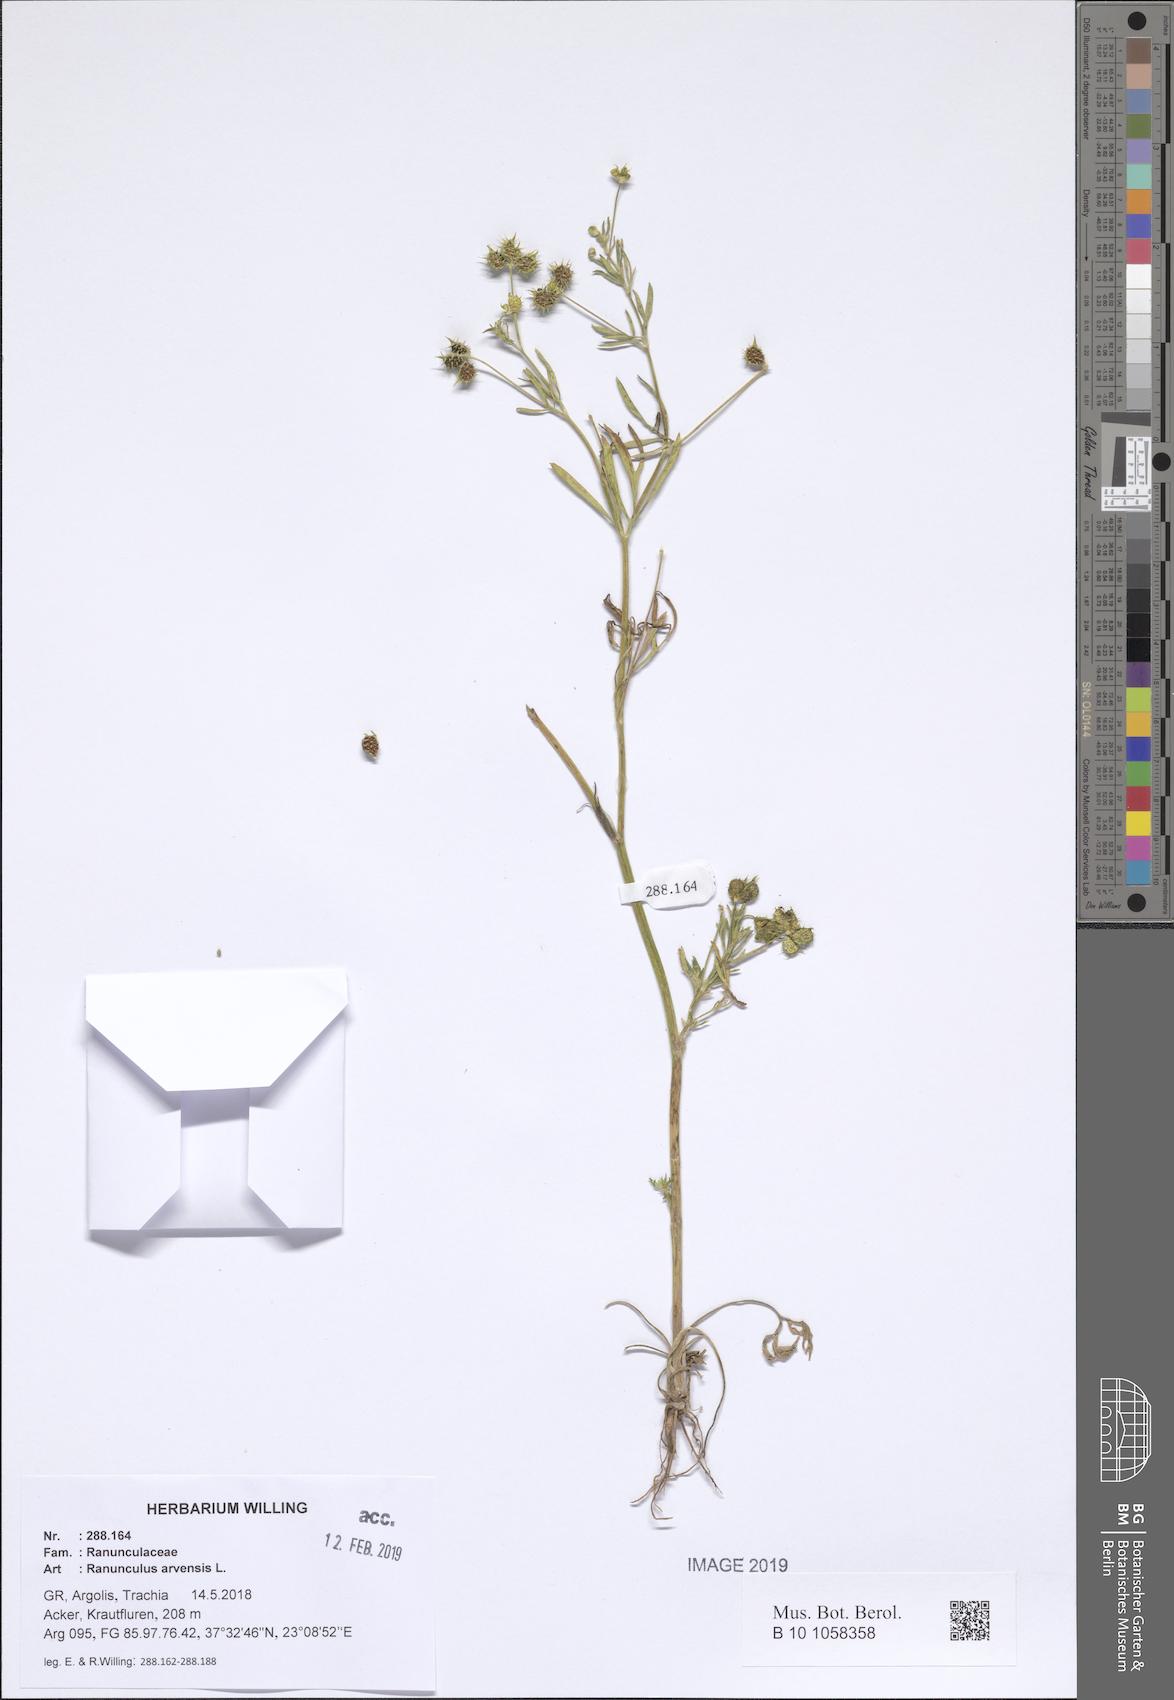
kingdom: Plantae
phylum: Tracheophyta
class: Magnoliopsida
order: Ranunculales
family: Ranunculaceae
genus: Ranunculus
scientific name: Ranunculus arvensis
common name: Corn buttercup
